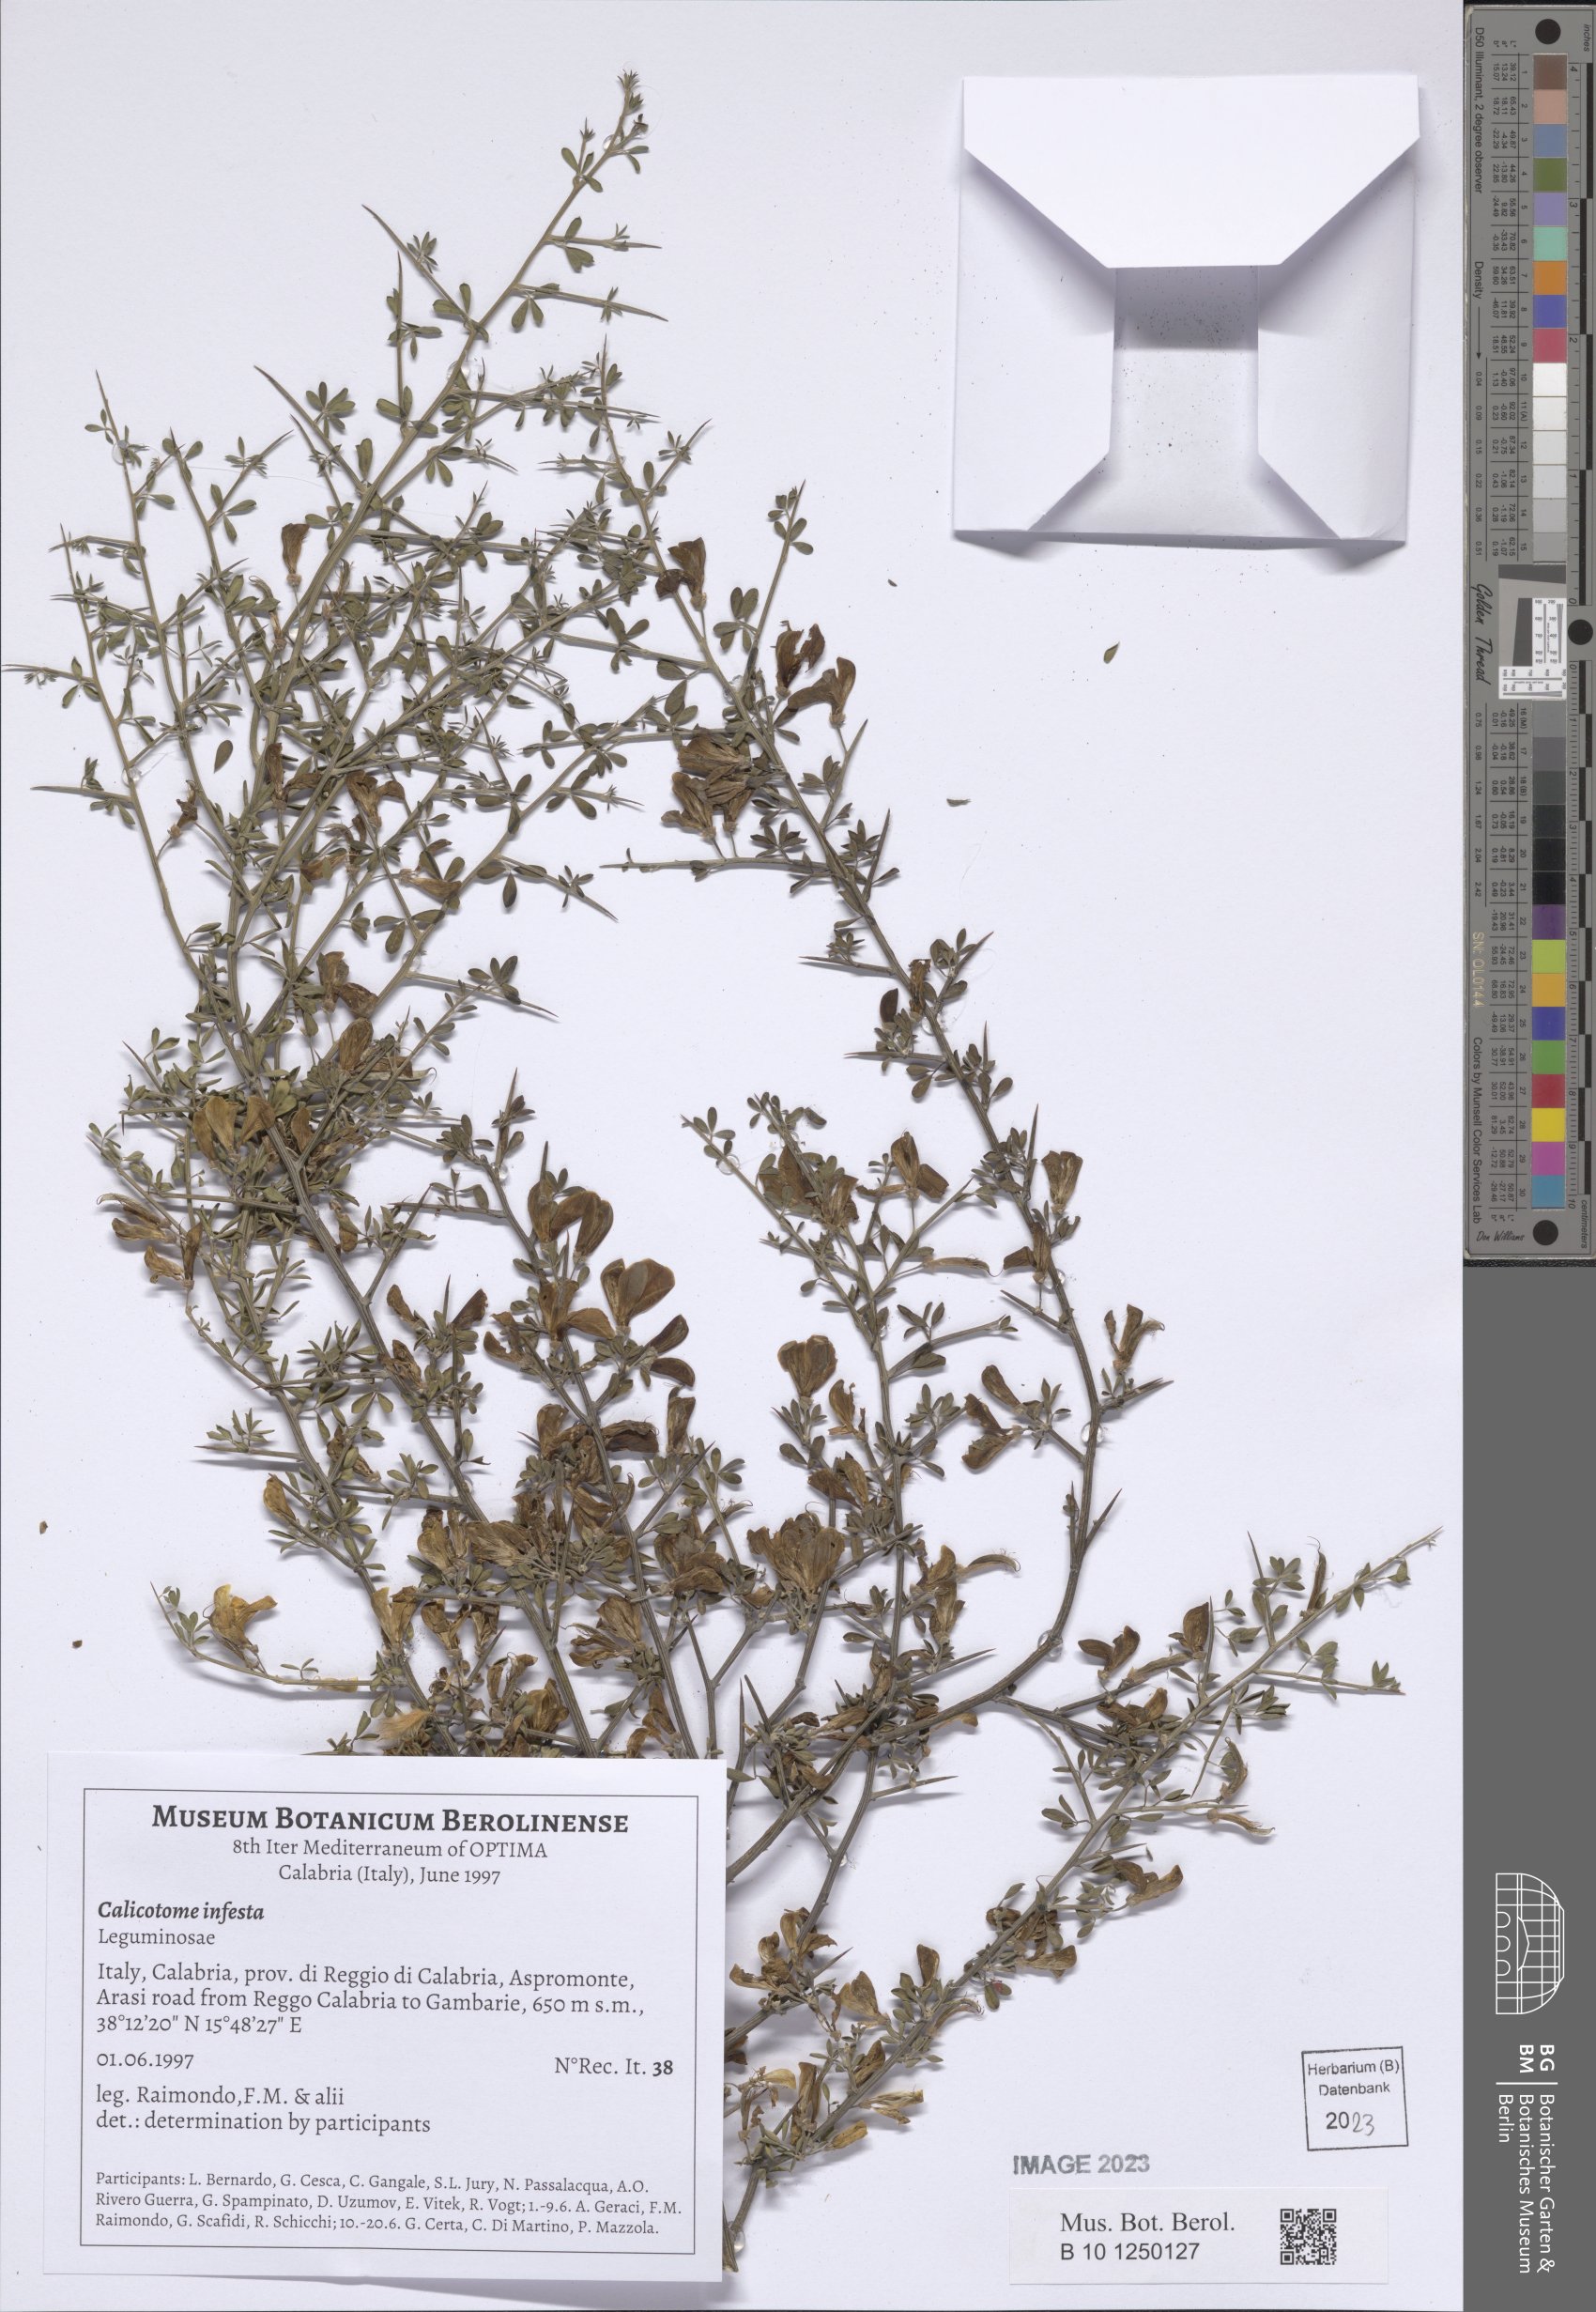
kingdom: Plantae
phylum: Tracheophyta
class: Magnoliopsida
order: Fabales
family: Fabaceae
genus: Calicotome
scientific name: Calicotome infesta
